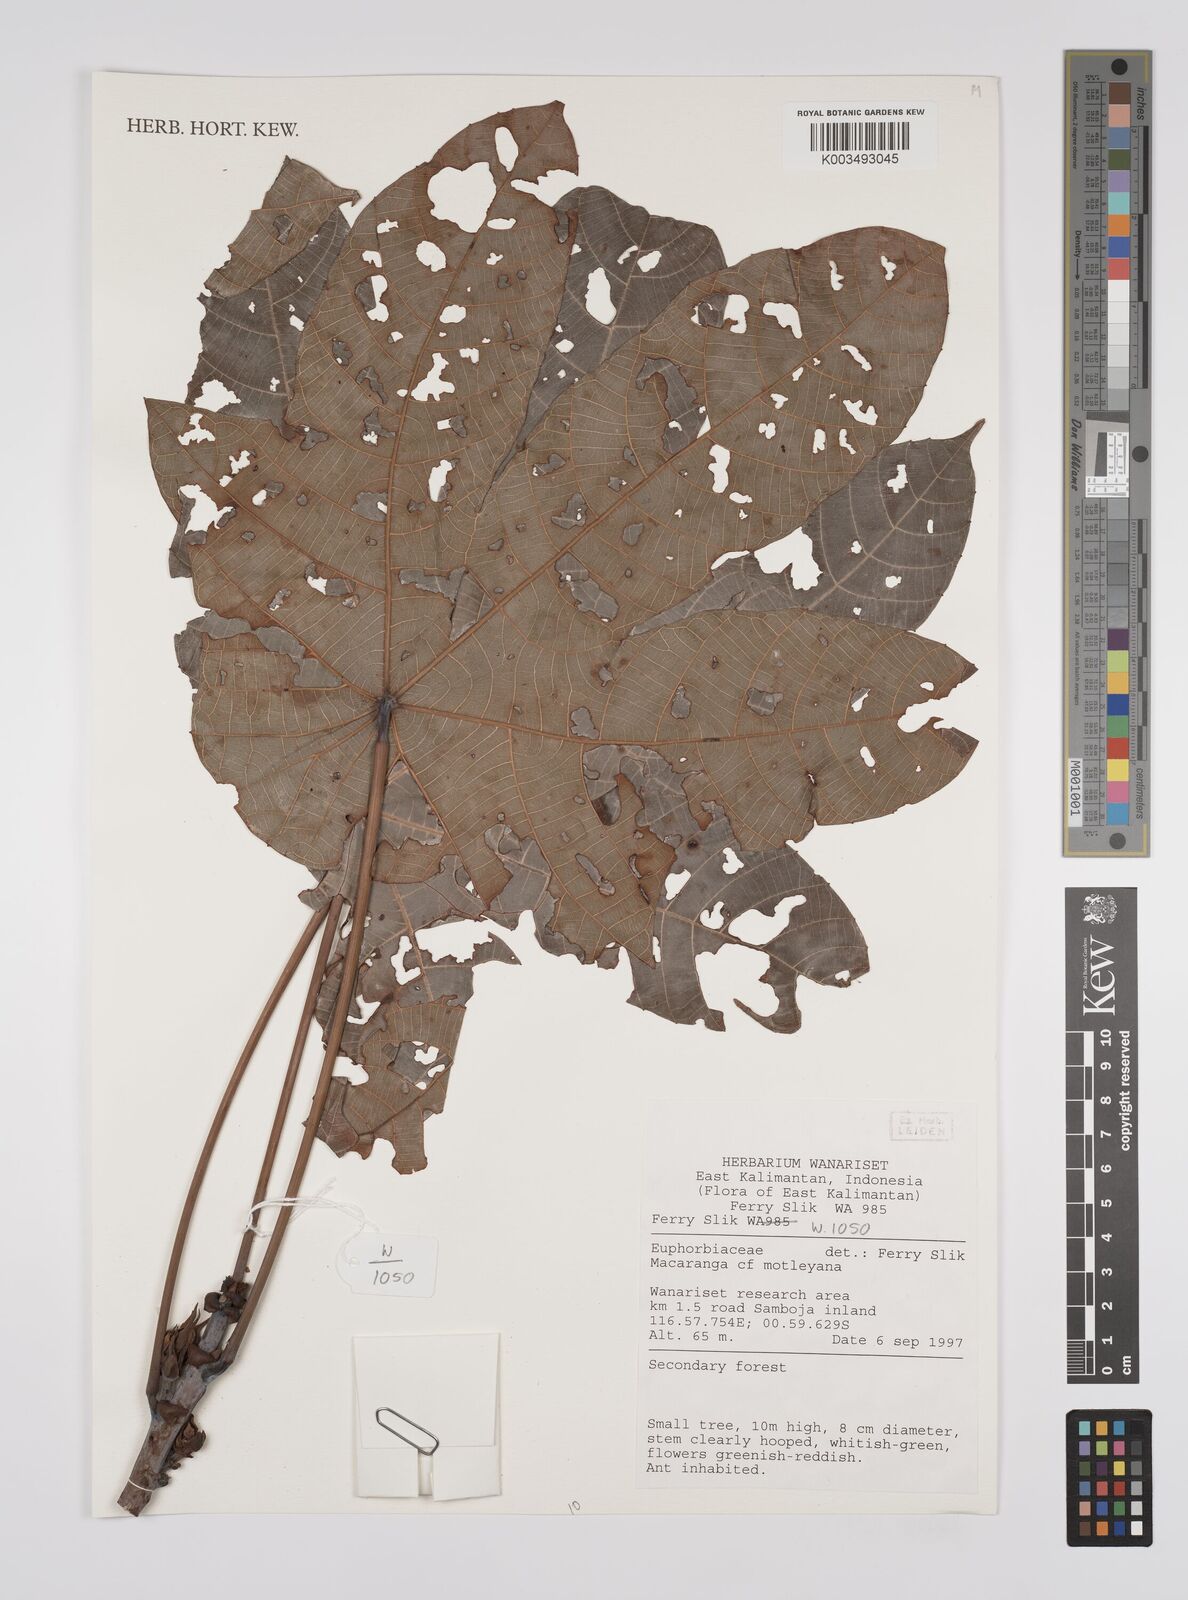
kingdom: Plantae
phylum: Tracheophyta
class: Magnoliopsida
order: Malpighiales
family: Euphorbiaceae
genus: Macaranga
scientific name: Macaranga motleyana
